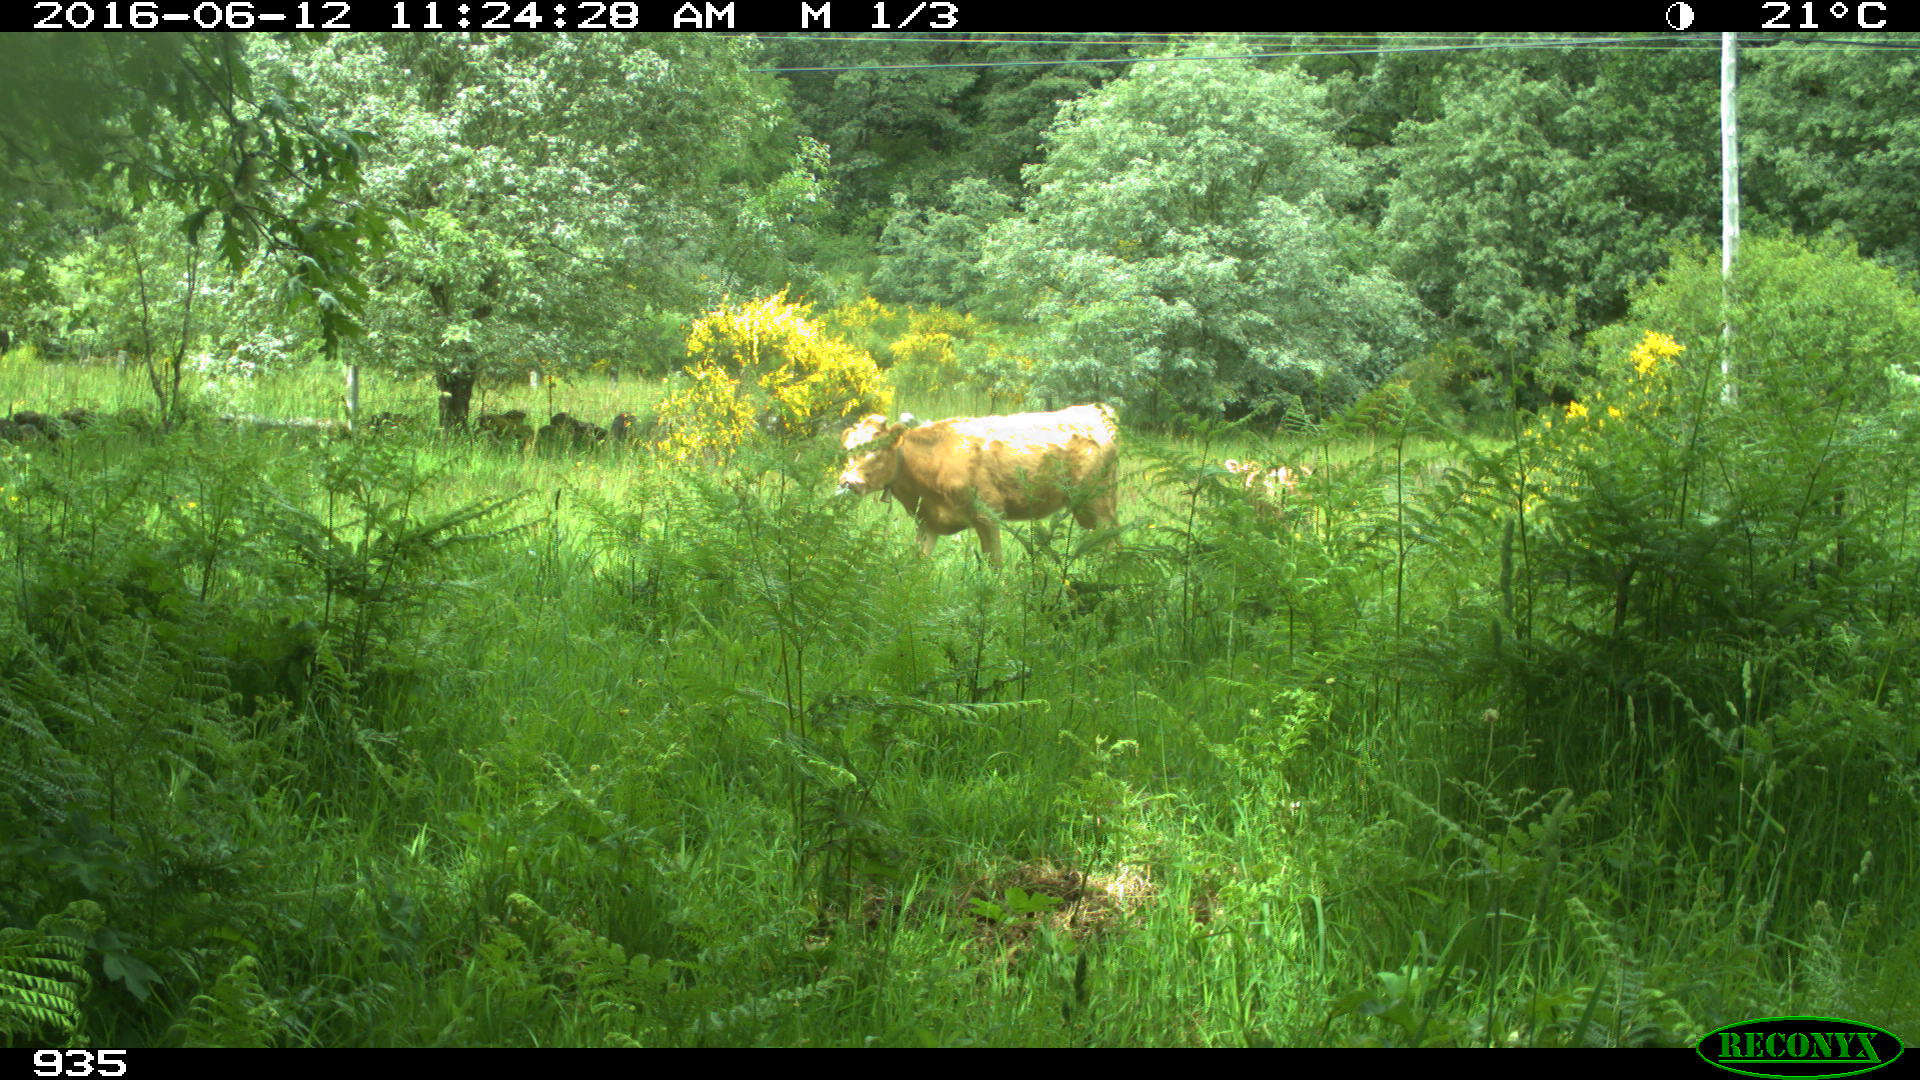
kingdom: Animalia
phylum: Chordata
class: Mammalia
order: Artiodactyla
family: Bovidae
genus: Bos
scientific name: Bos taurus
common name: Domesticated cattle
